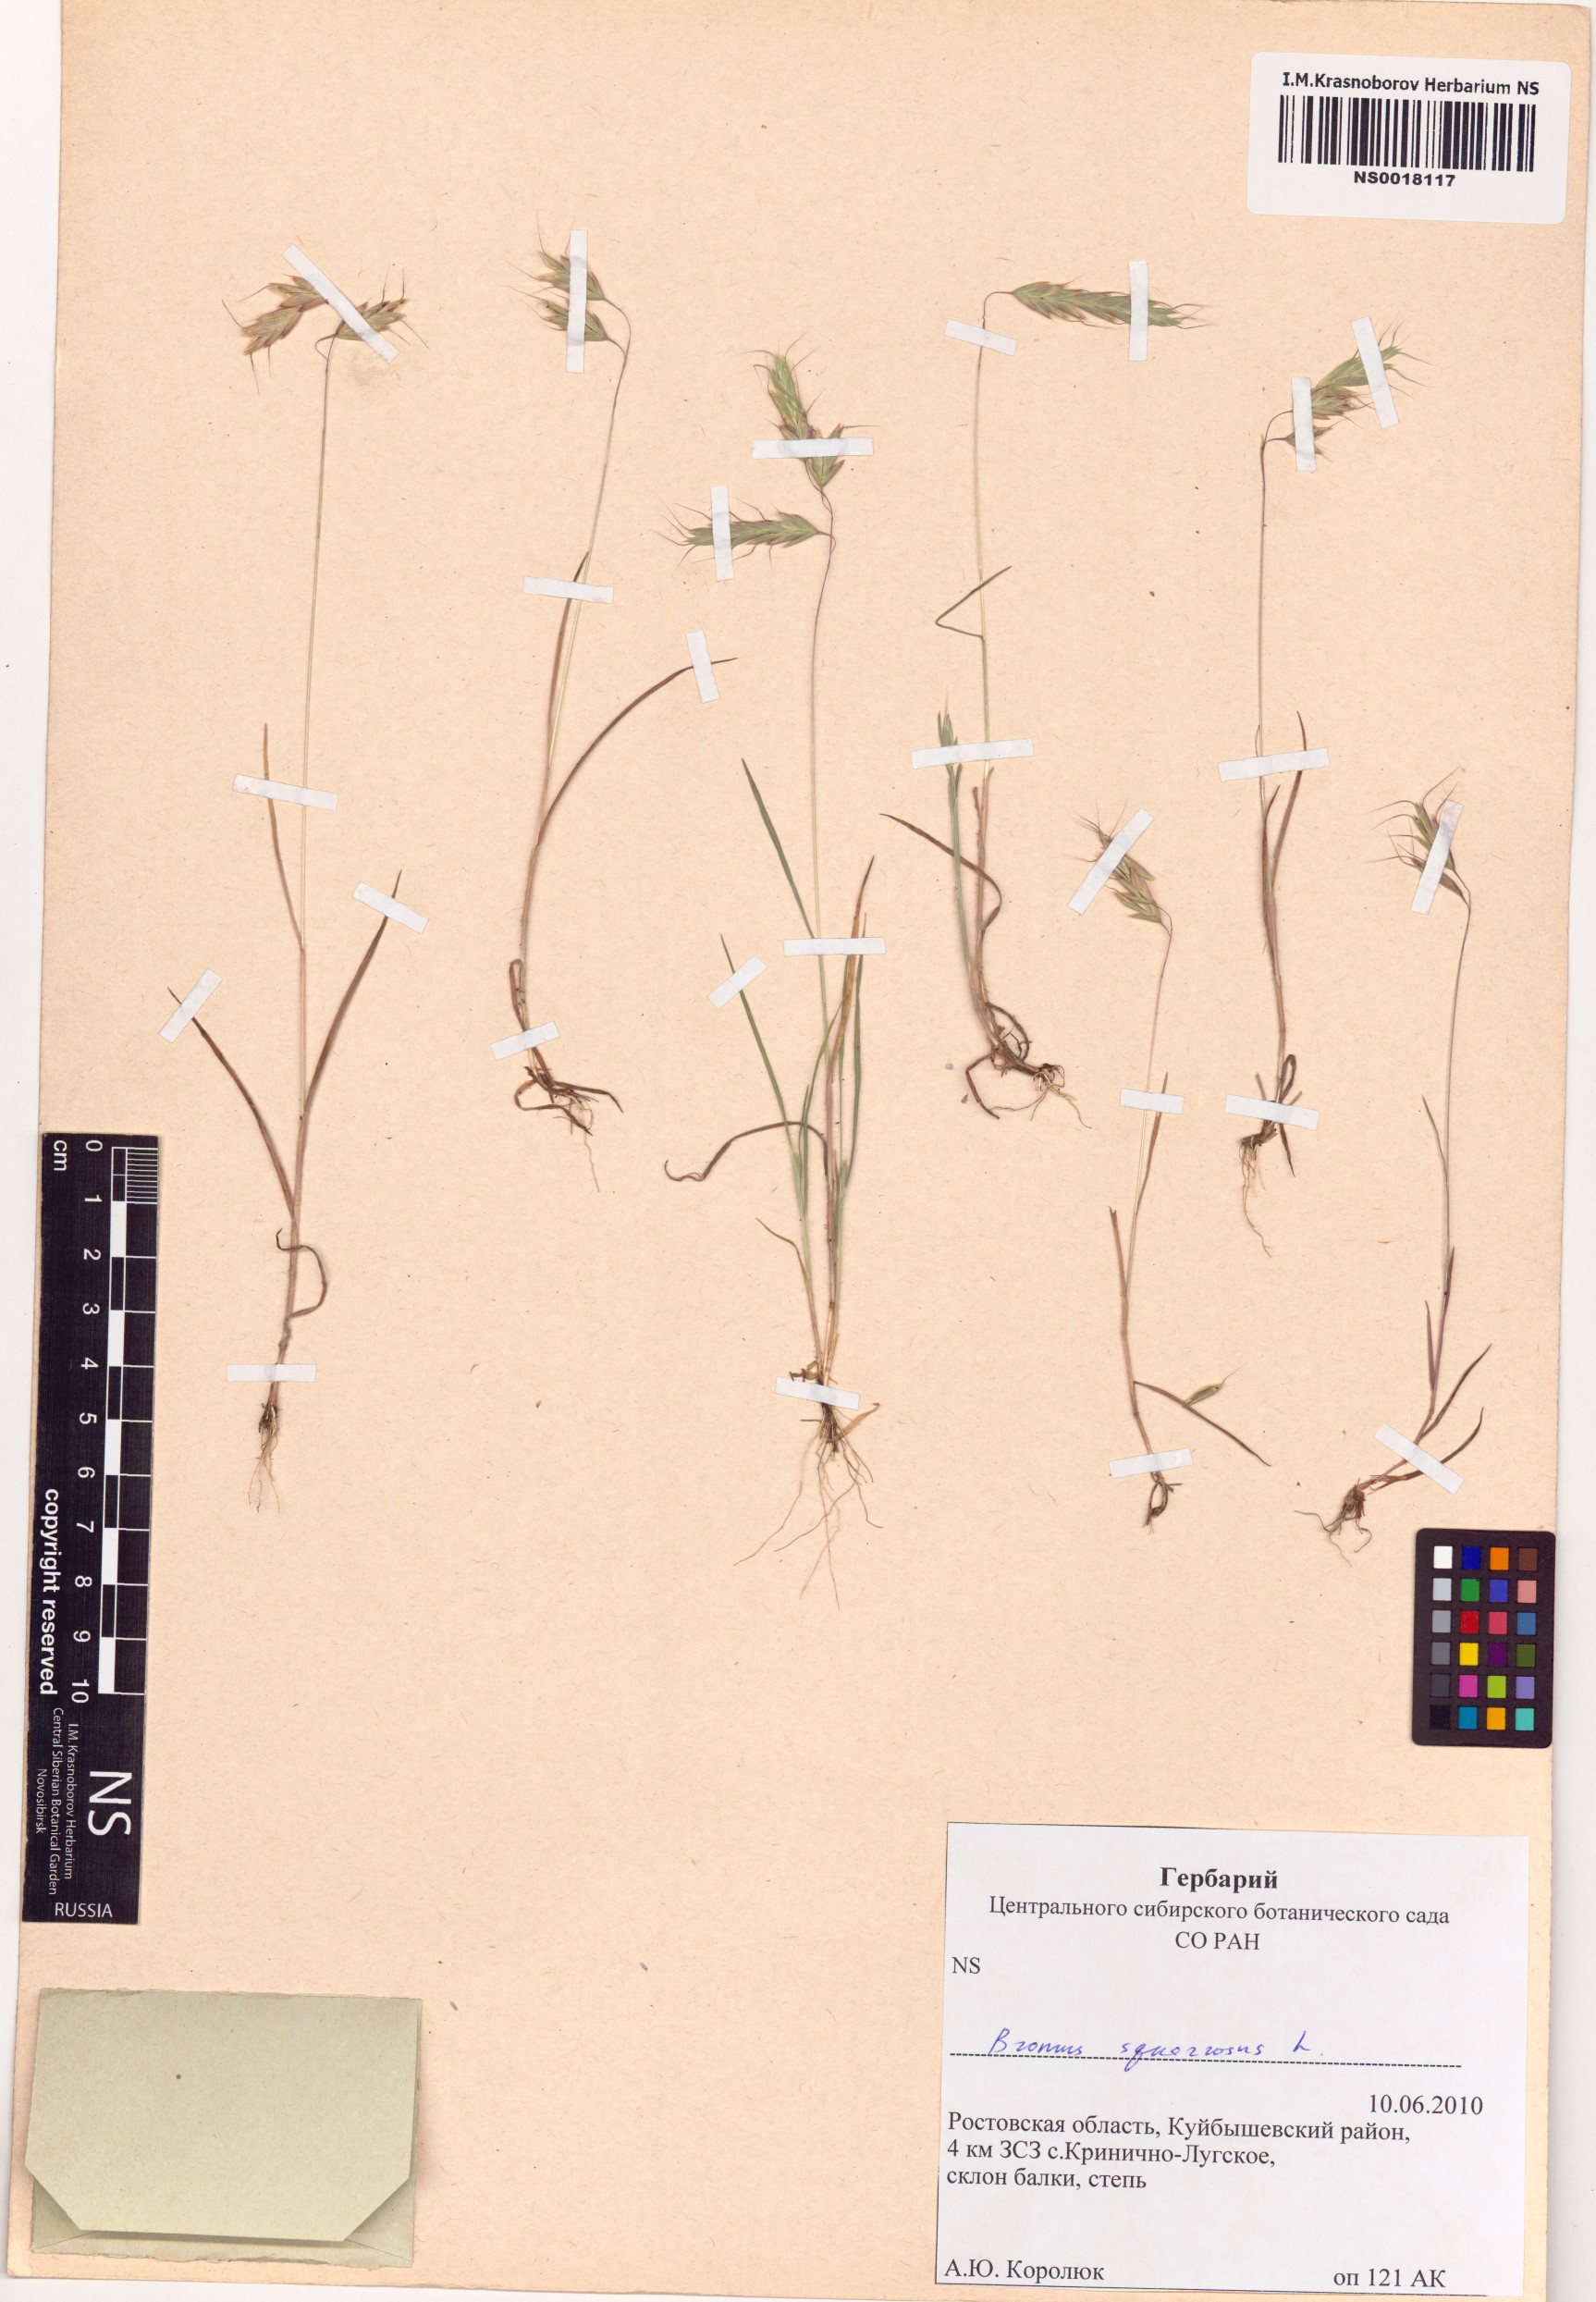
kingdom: Plantae
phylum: Tracheophyta
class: Liliopsida
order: Poales
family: Poaceae
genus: Bromus
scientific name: Bromus squarrosus
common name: Corn brome
